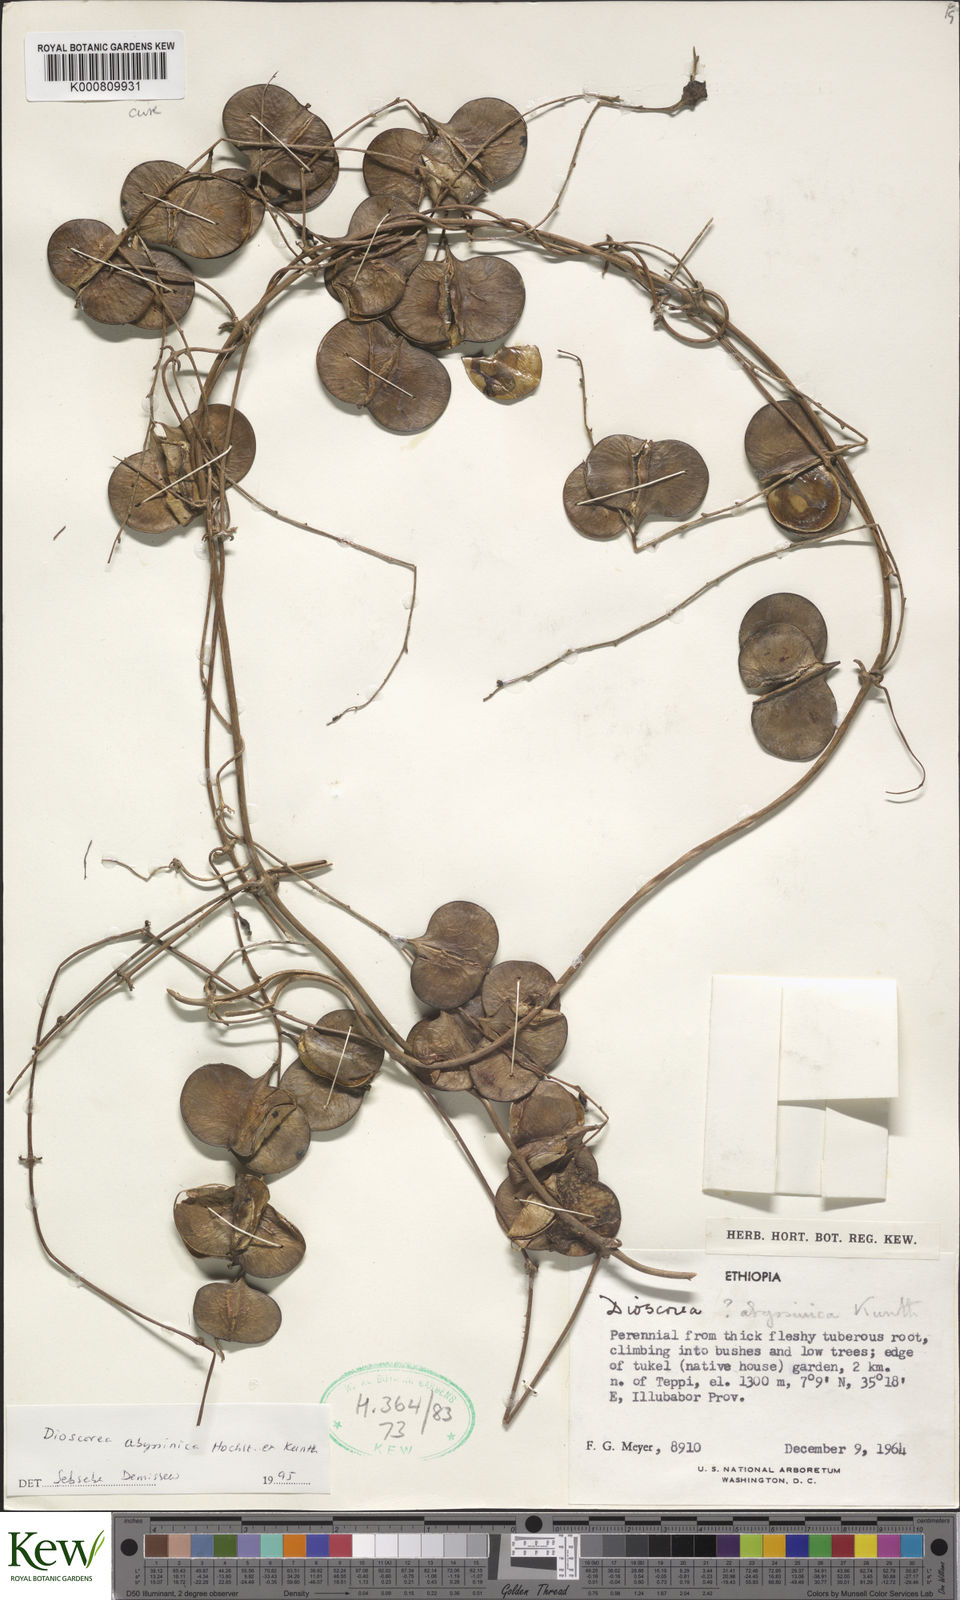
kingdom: Plantae
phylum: Tracheophyta
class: Liliopsida
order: Dioscoreales
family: Dioscoreaceae
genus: Dioscorea
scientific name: Dioscorea abyssinica
